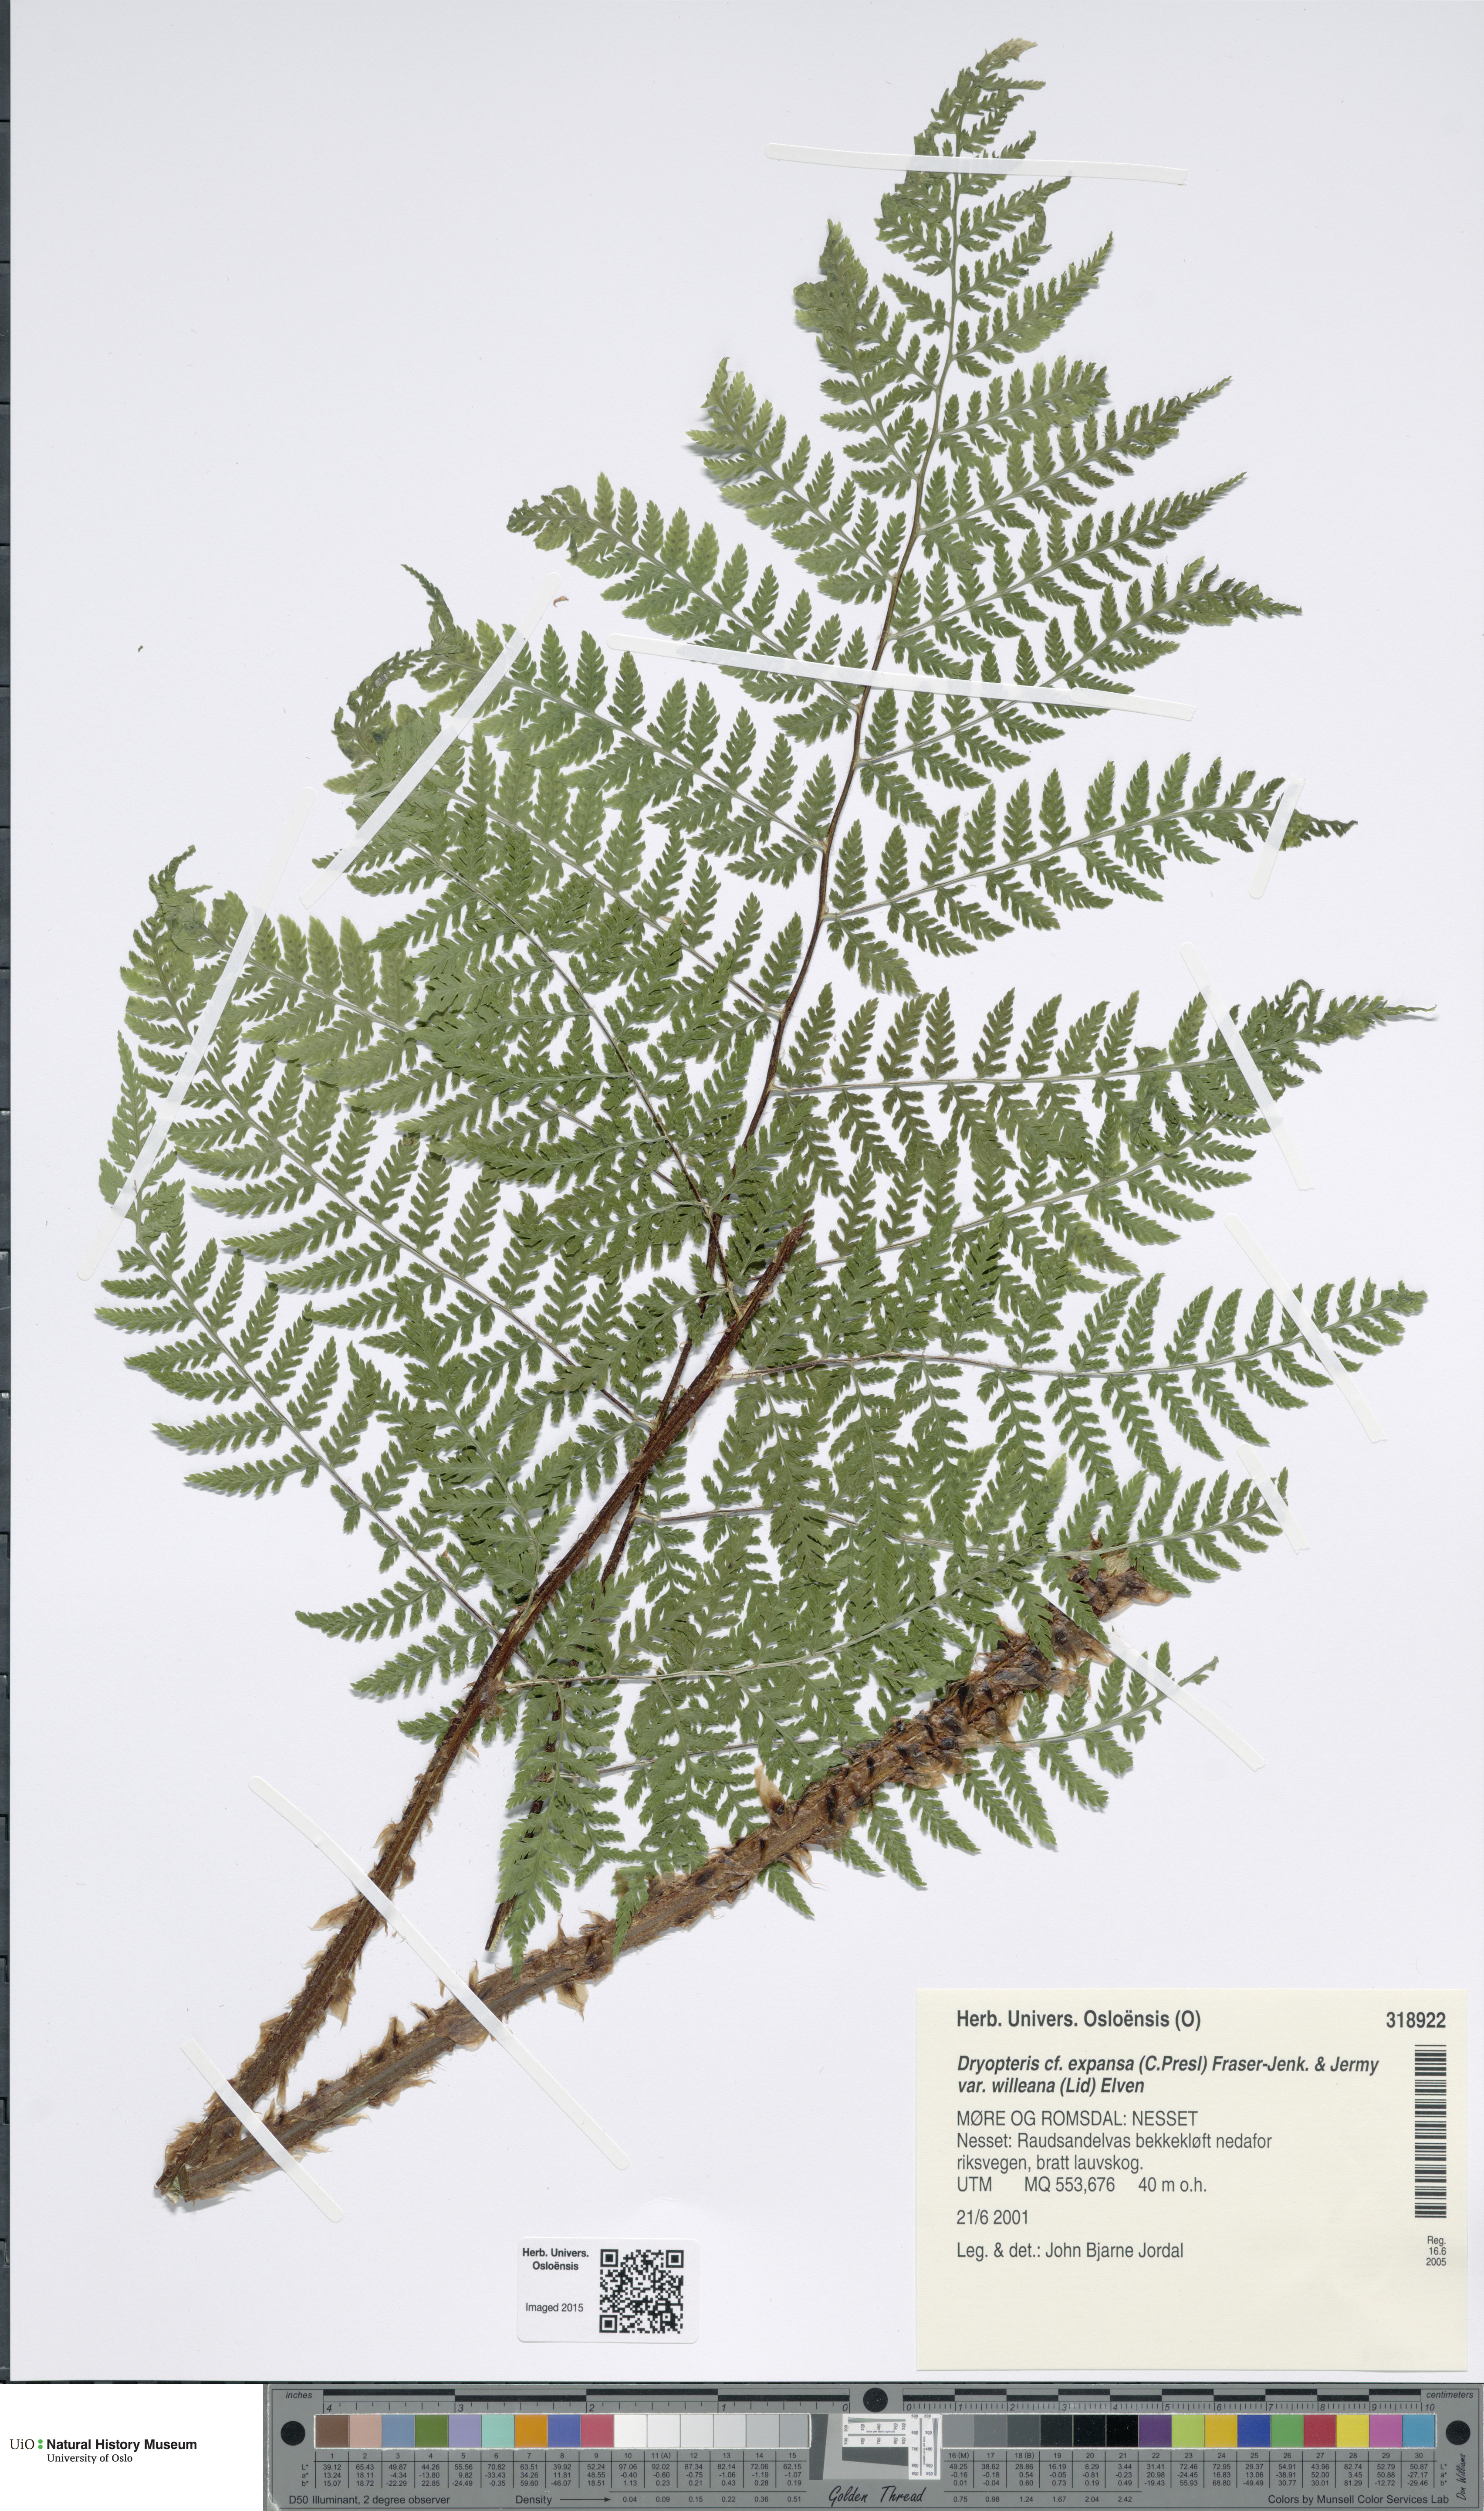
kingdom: Plantae
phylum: Tracheophyta
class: Polypodiopsida
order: Polypodiales
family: Dryopteridaceae
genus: Dryopteris
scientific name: Dryopteris expansa
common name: Northern buckler fern
